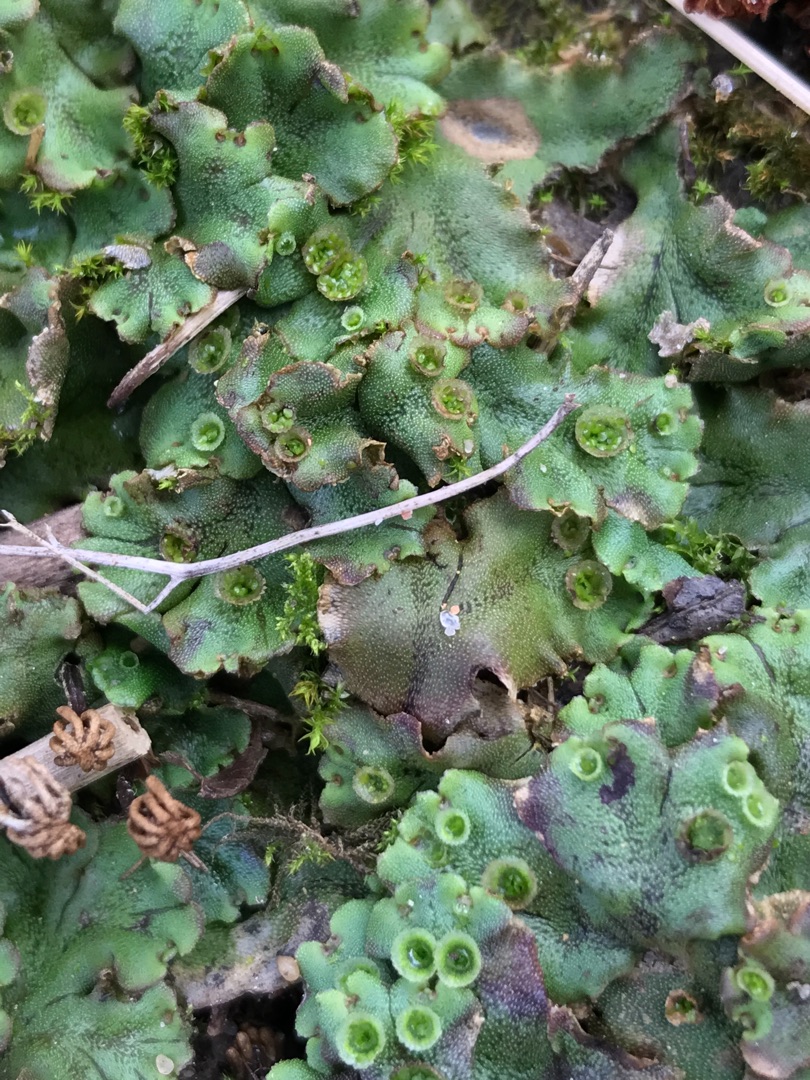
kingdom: Plantae
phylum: Marchantiophyta
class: Marchantiopsida
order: Marchantiales
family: Marchantiaceae
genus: Marchantia
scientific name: Marchantia polymorpha
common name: Almindelig lungemos (underart)
